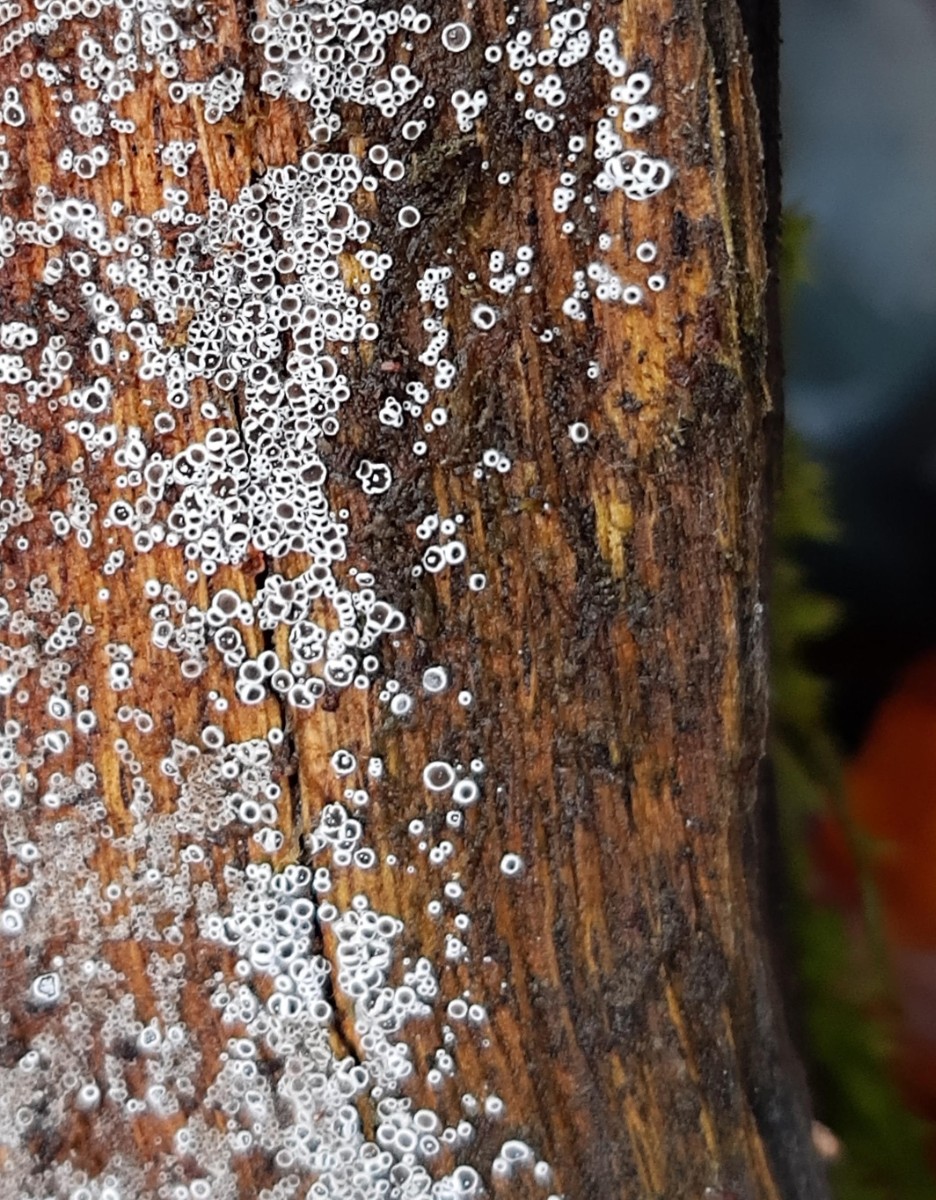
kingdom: Fungi
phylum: Ascomycota
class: Leotiomycetes
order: Helotiales
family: Arachnopezizaceae
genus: Eriopezia
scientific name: Eriopezia caesia
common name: ege-spindskive
